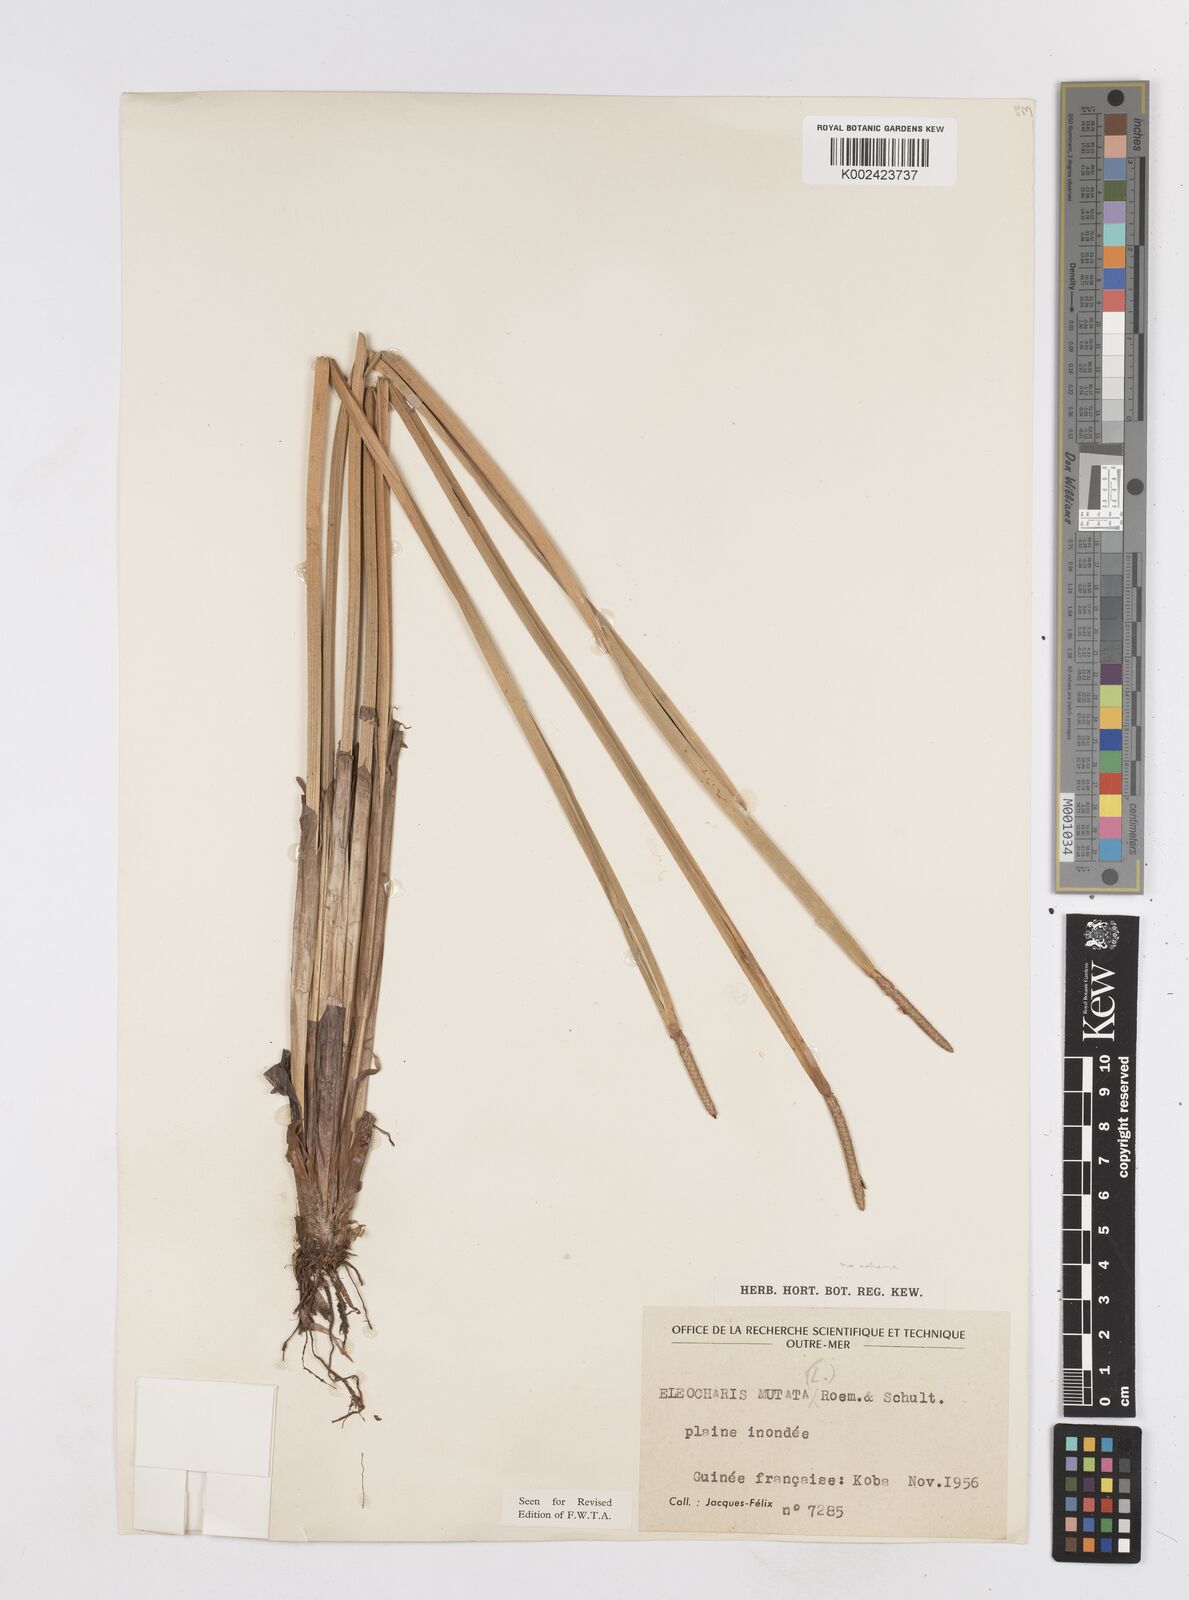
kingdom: Plantae
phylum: Tracheophyta
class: Liliopsida
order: Poales
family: Cyperaceae
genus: Eleocharis
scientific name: Eleocharis mutata
